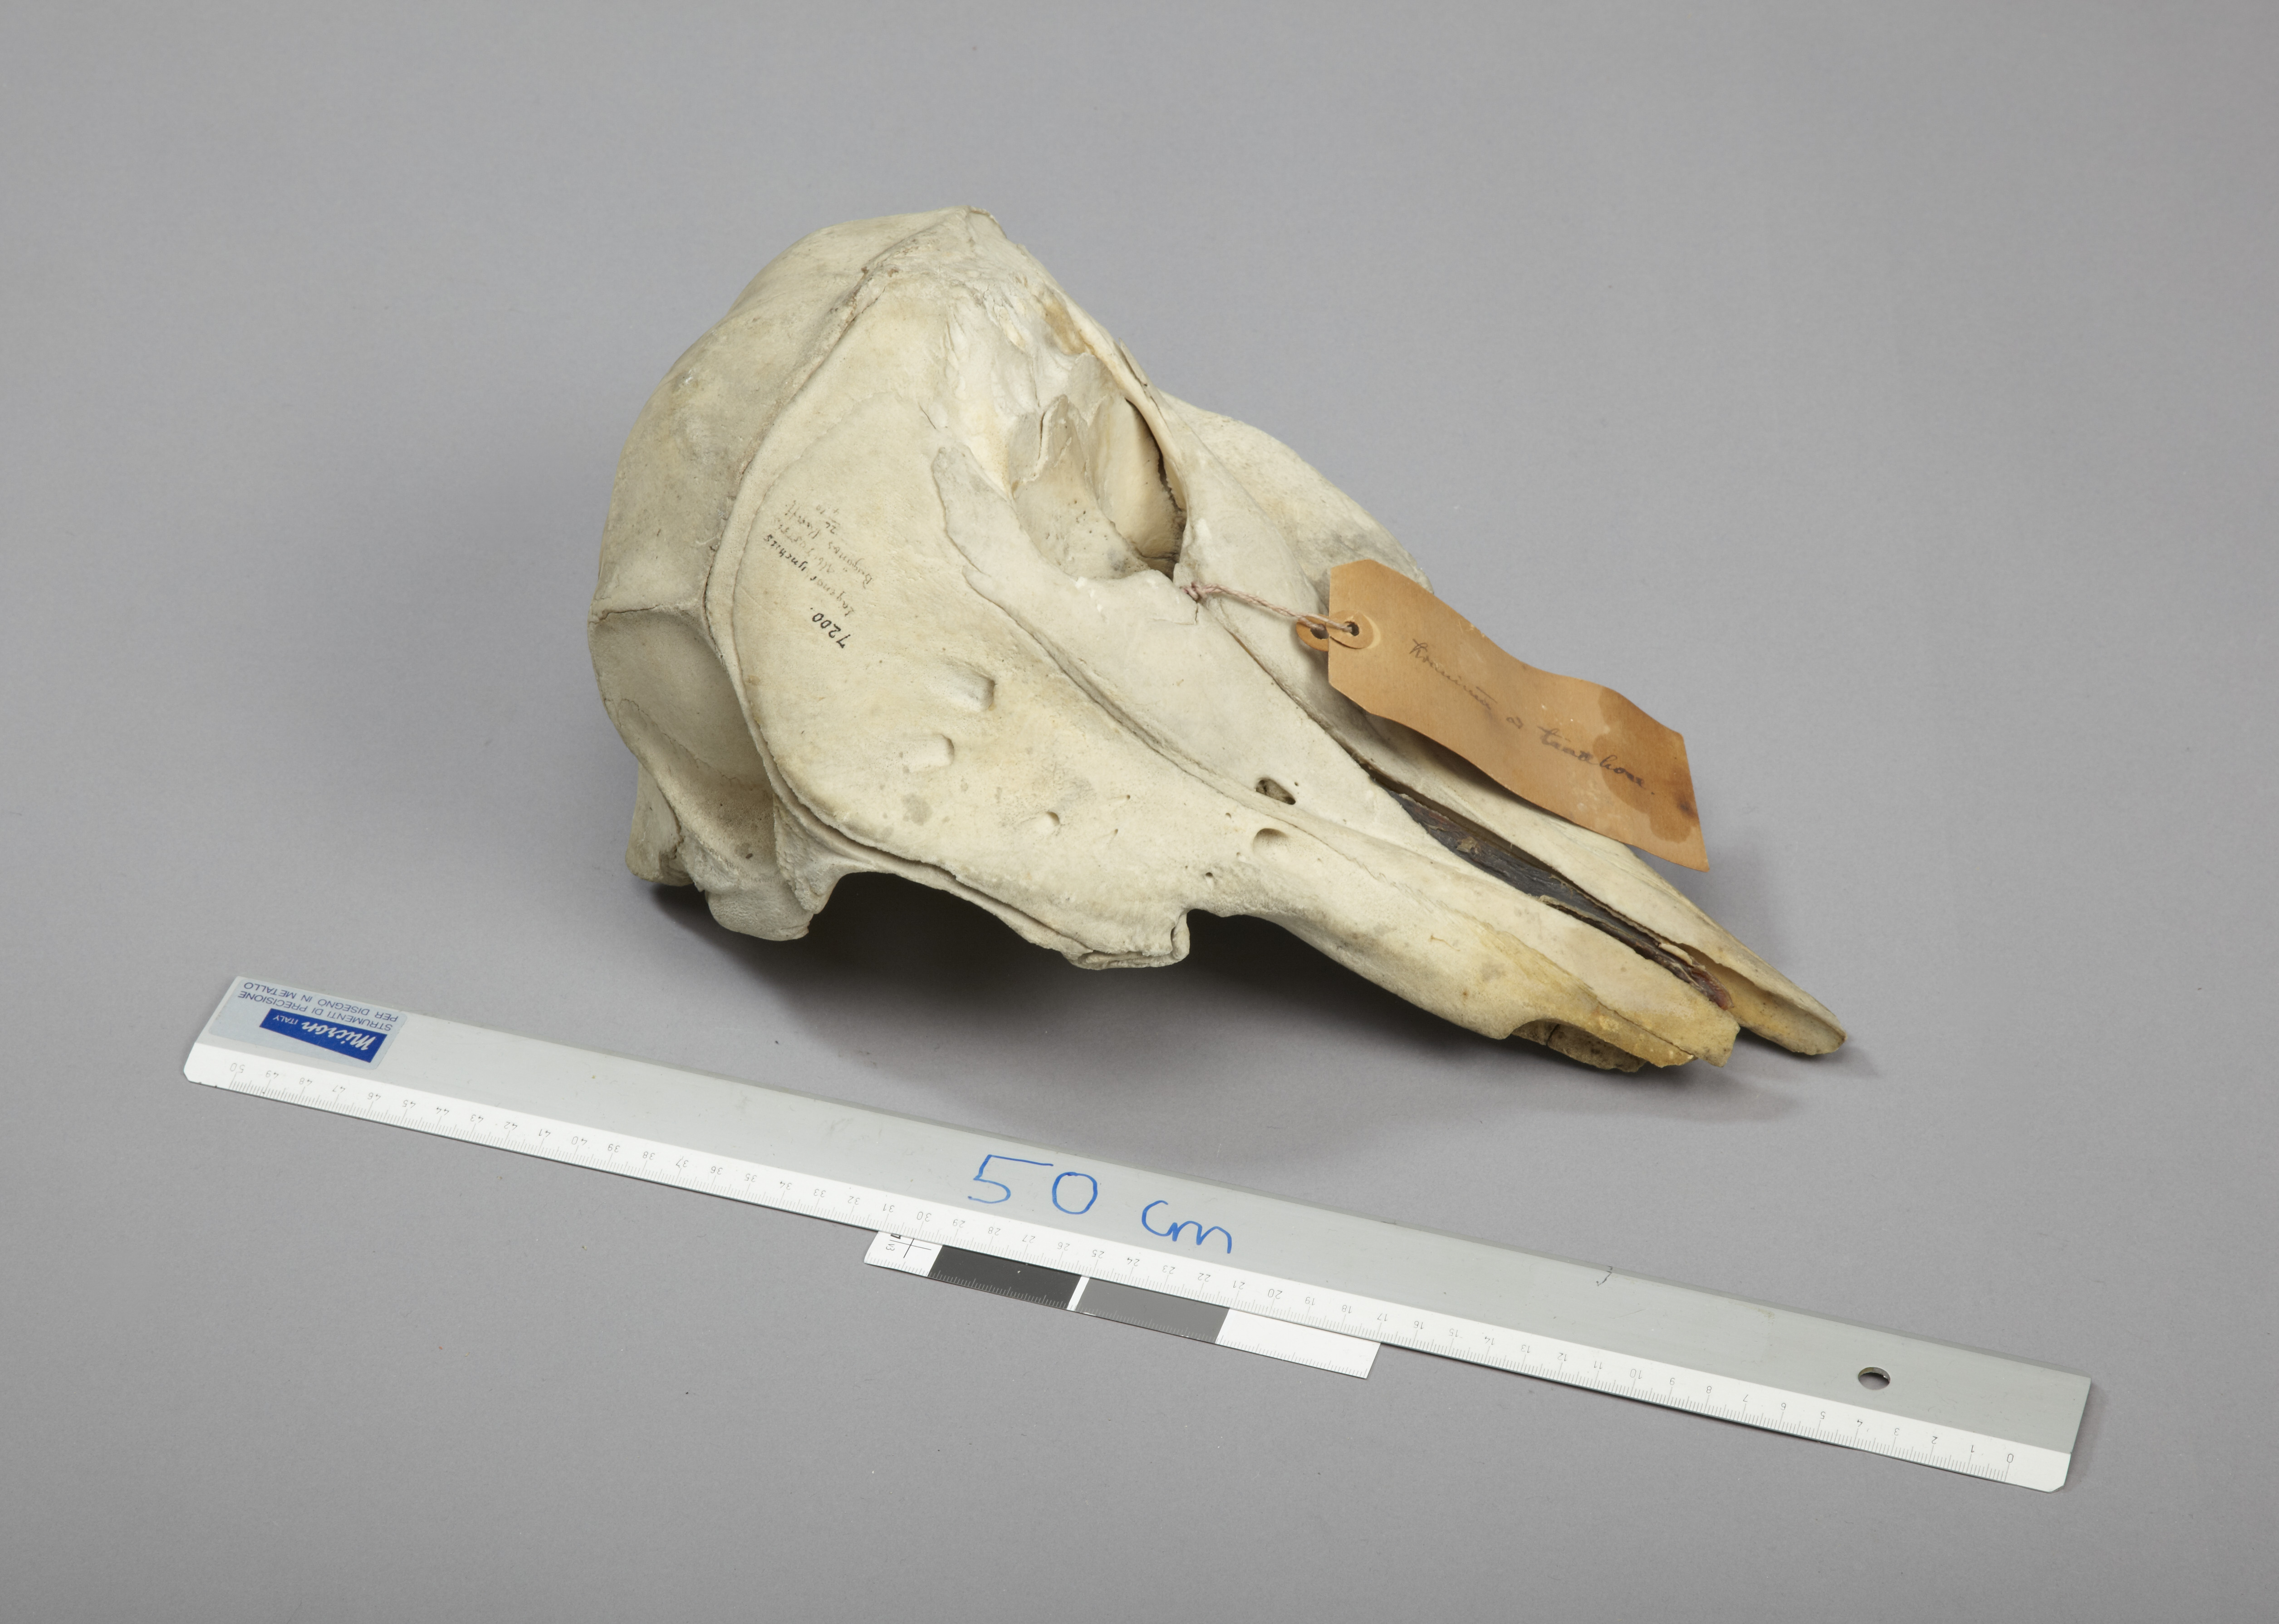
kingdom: Animalia
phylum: Chordata
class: Mammalia
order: Cetacea
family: Delphinidae
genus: Lagenorhynchus
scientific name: Lagenorhynchus albirostris
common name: White-beaked dolphin
